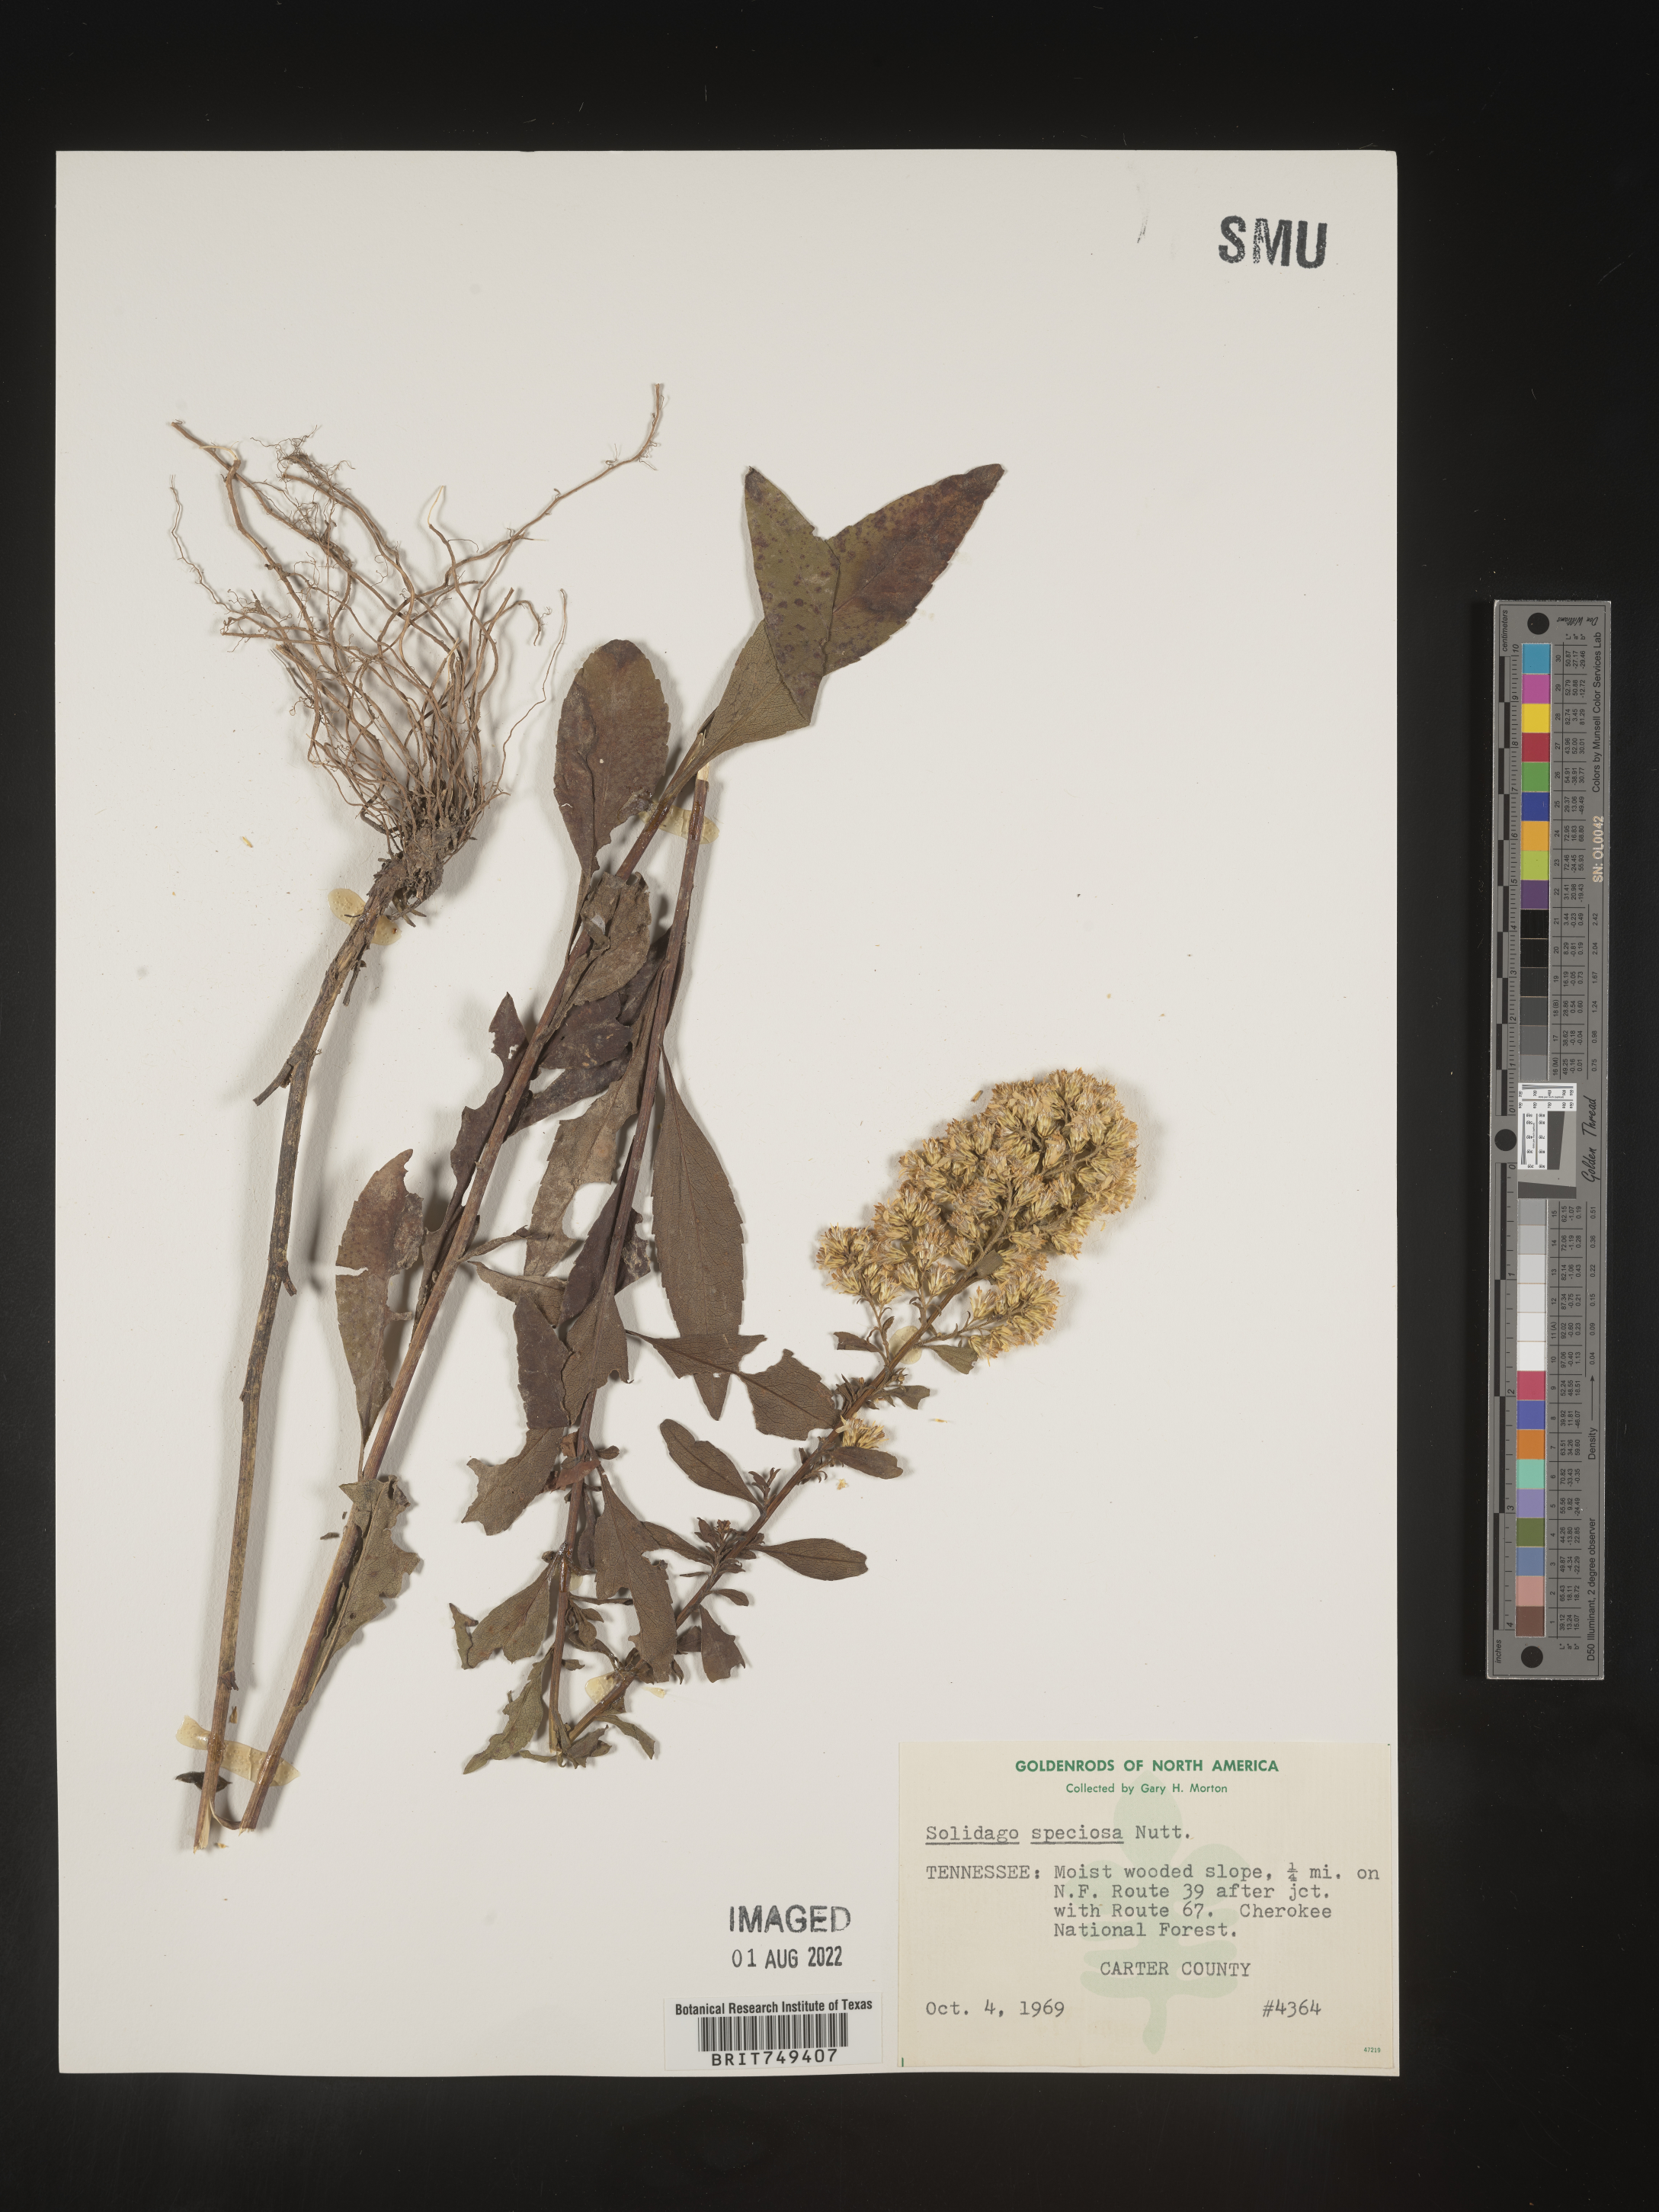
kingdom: Plantae
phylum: Tracheophyta
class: Magnoliopsida
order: Asterales
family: Asteraceae
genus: Solidago
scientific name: Solidago speciosa
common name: Showy goldenrod
